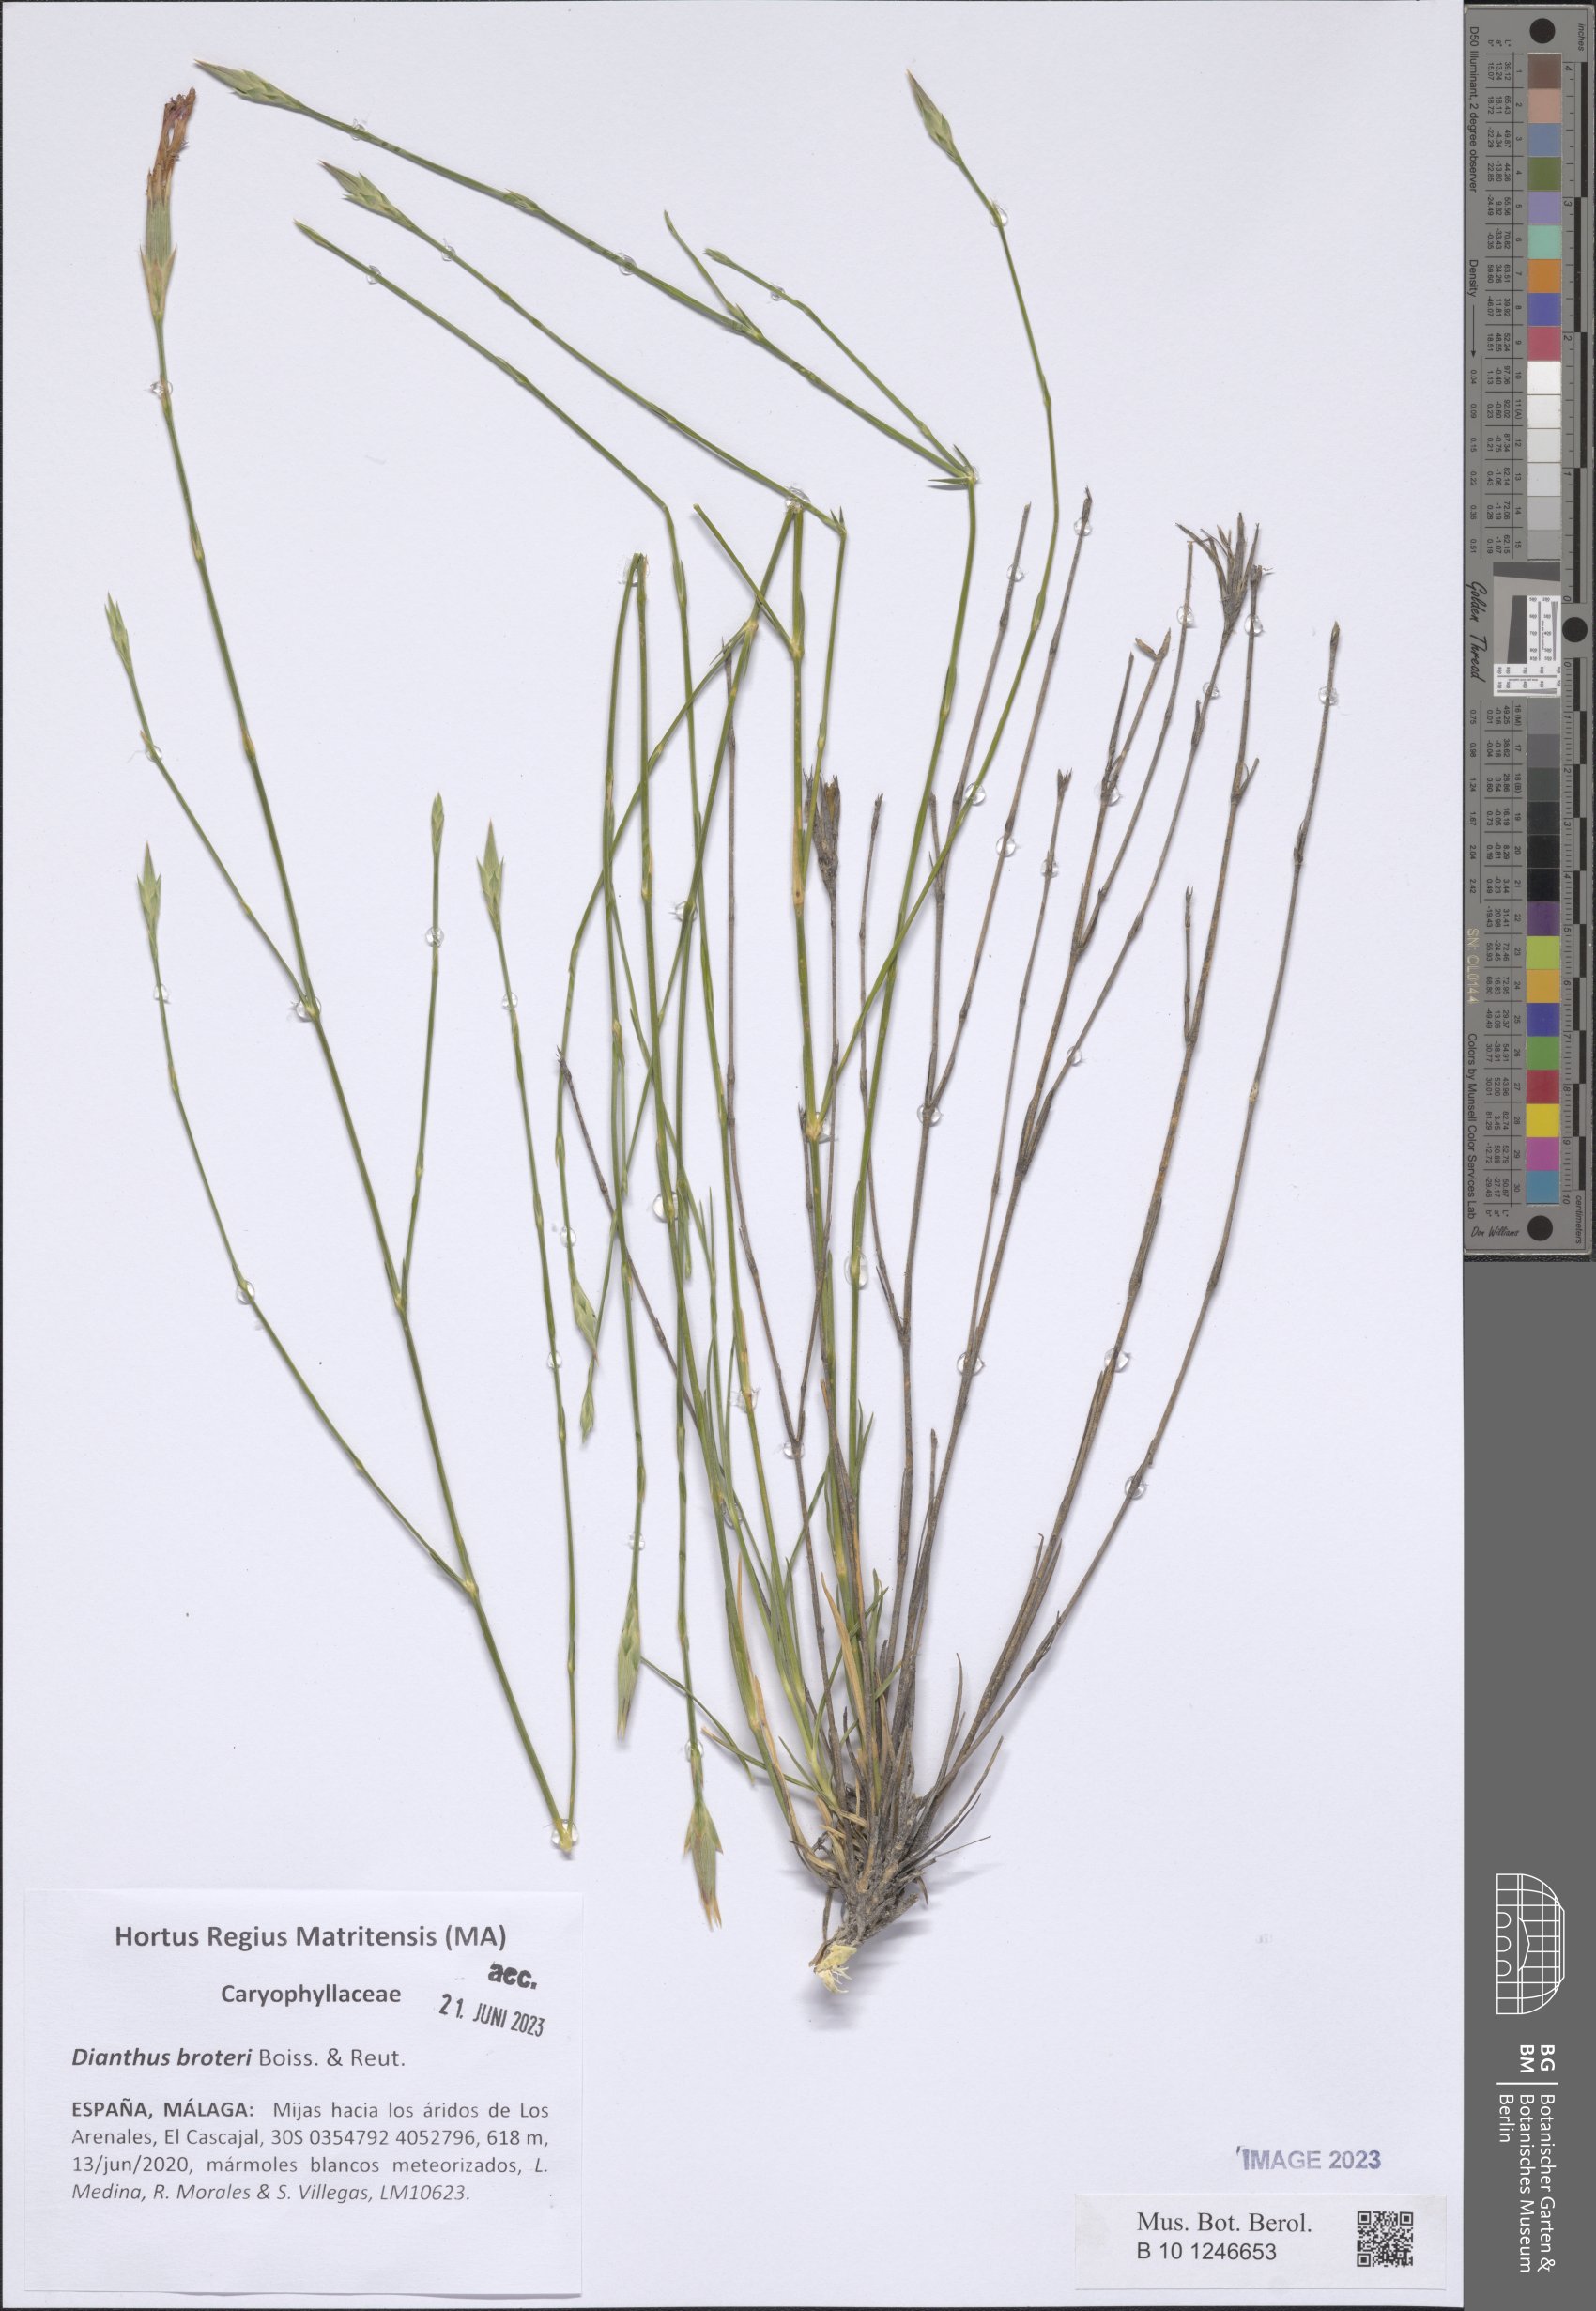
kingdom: Plantae
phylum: Tracheophyta
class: Magnoliopsida
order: Caryophyllales
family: Caryophyllaceae
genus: Dianthus
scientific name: Dianthus broteri
